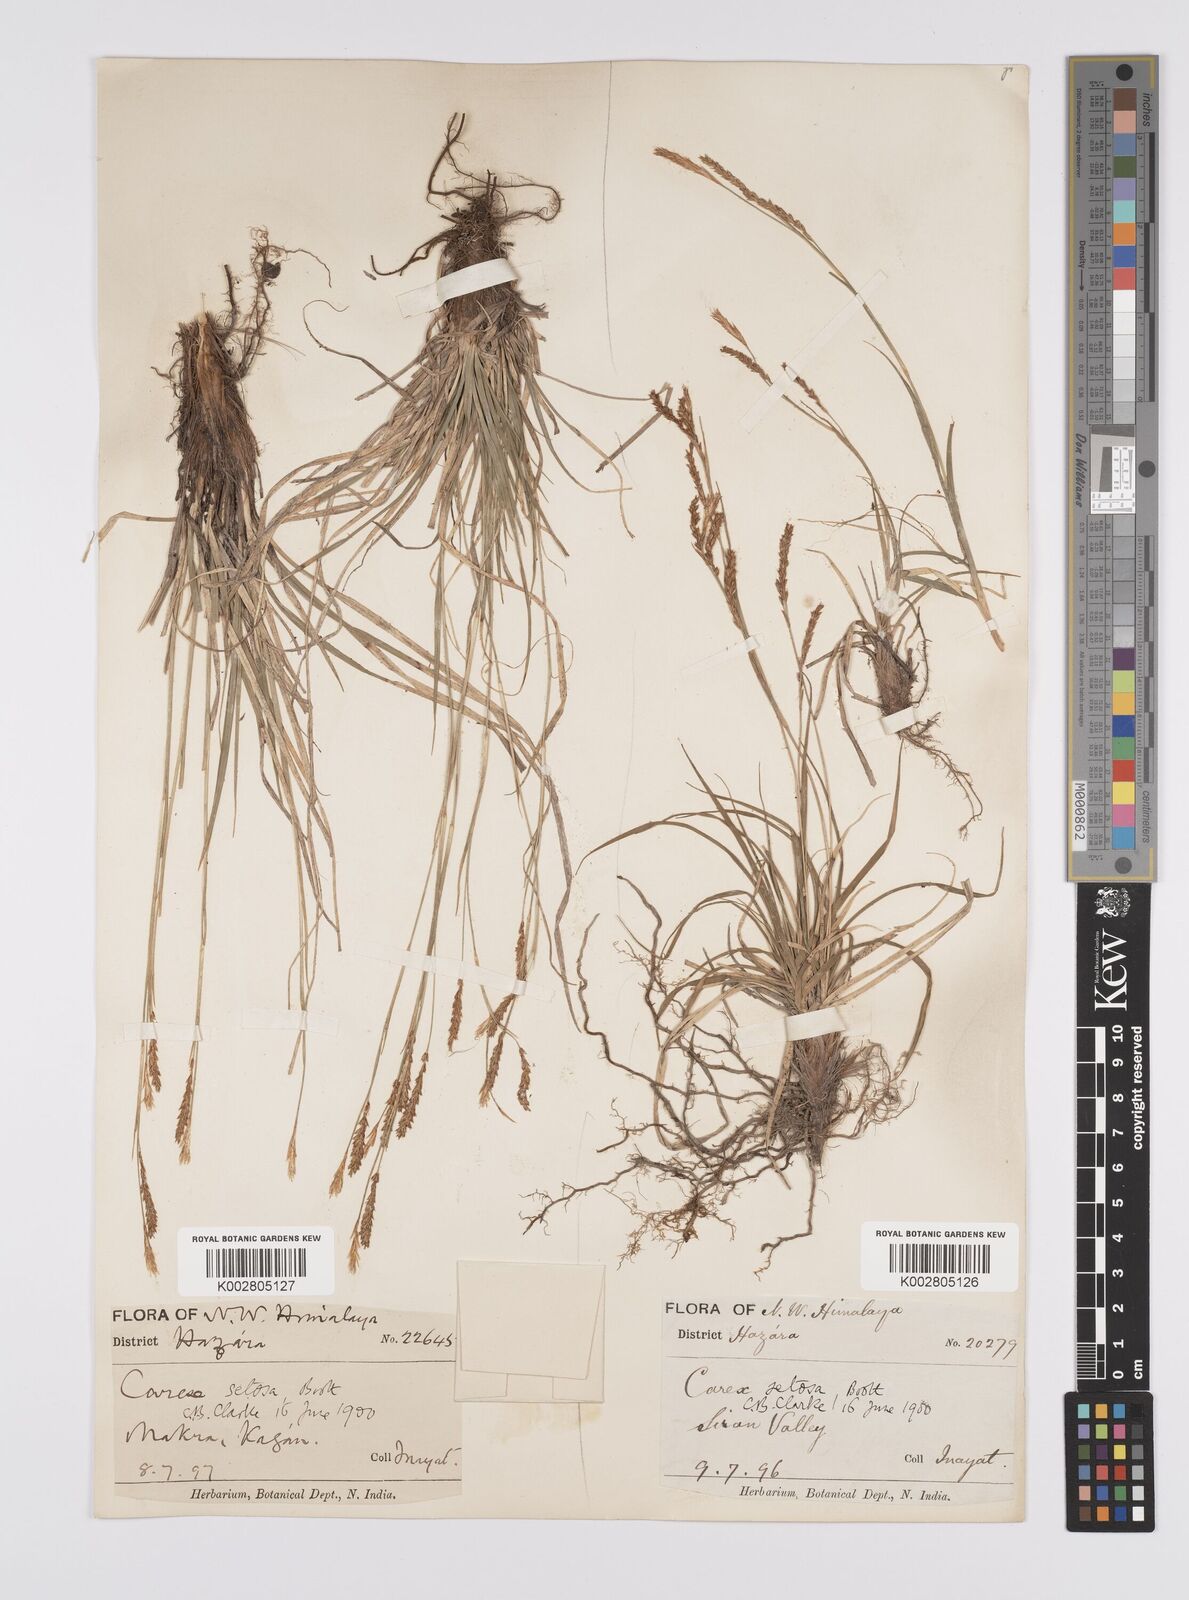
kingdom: Plantae
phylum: Tracheophyta
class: Liliopsida
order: Poales
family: Cyperaceae
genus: Carex
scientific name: Carex setosa
